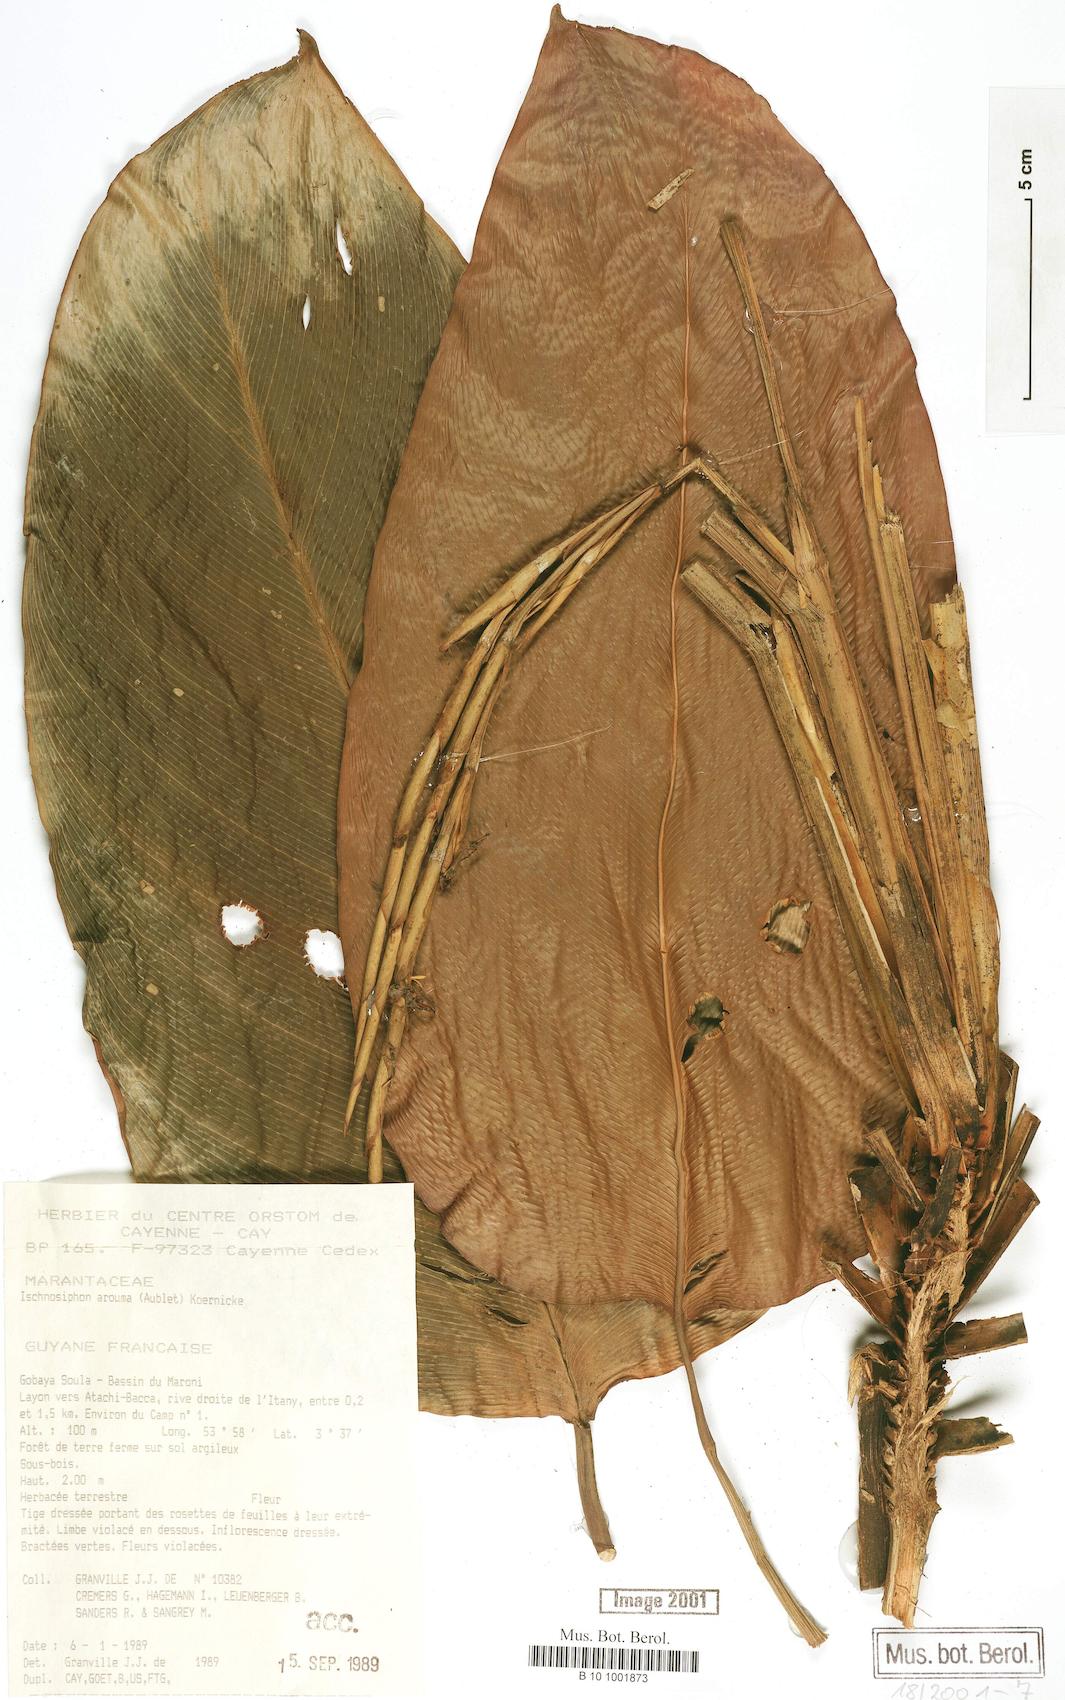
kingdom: Plantae
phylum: Tracheophyta
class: Liliopsida
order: Zingiberales
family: Marantaceae
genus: Ischnosiphon
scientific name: Ischnosiphon arouma
